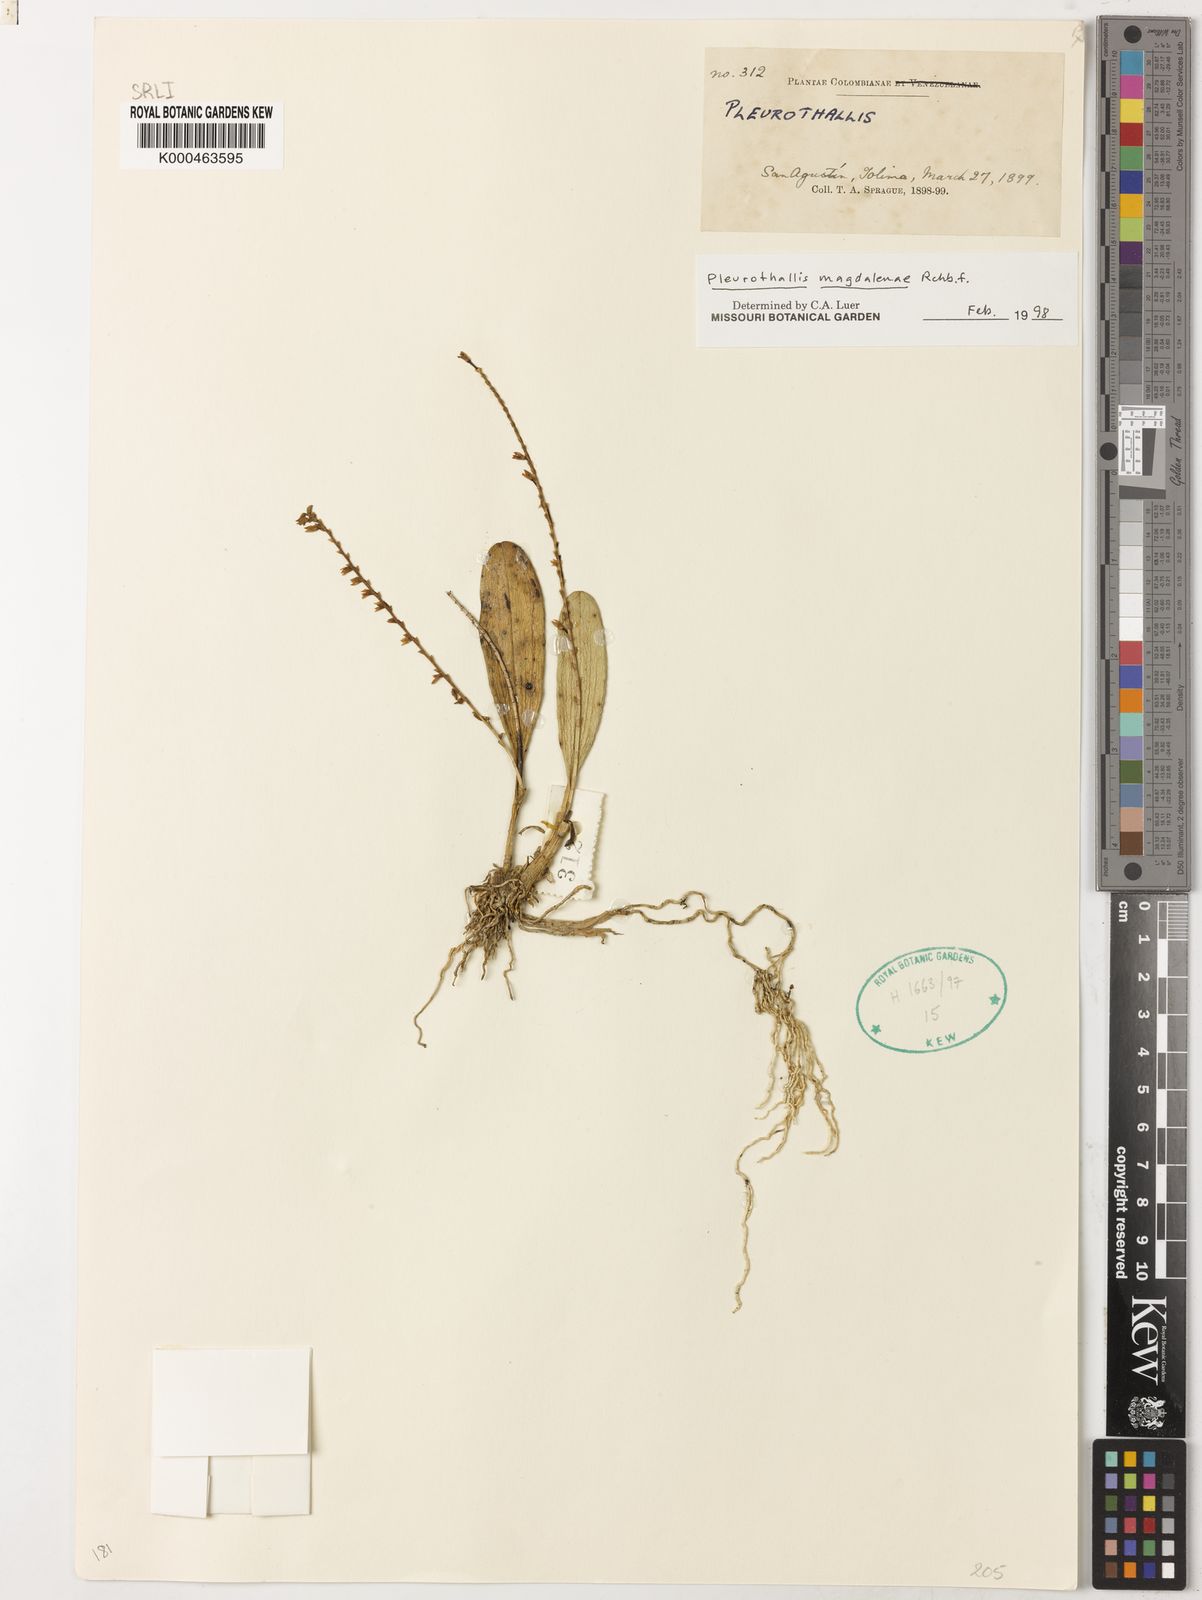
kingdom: Plantae
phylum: Tracheophyta
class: Liliopsida
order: Asparagales
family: Orchidaceae
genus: Stelis
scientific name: Stelis magdalenae
